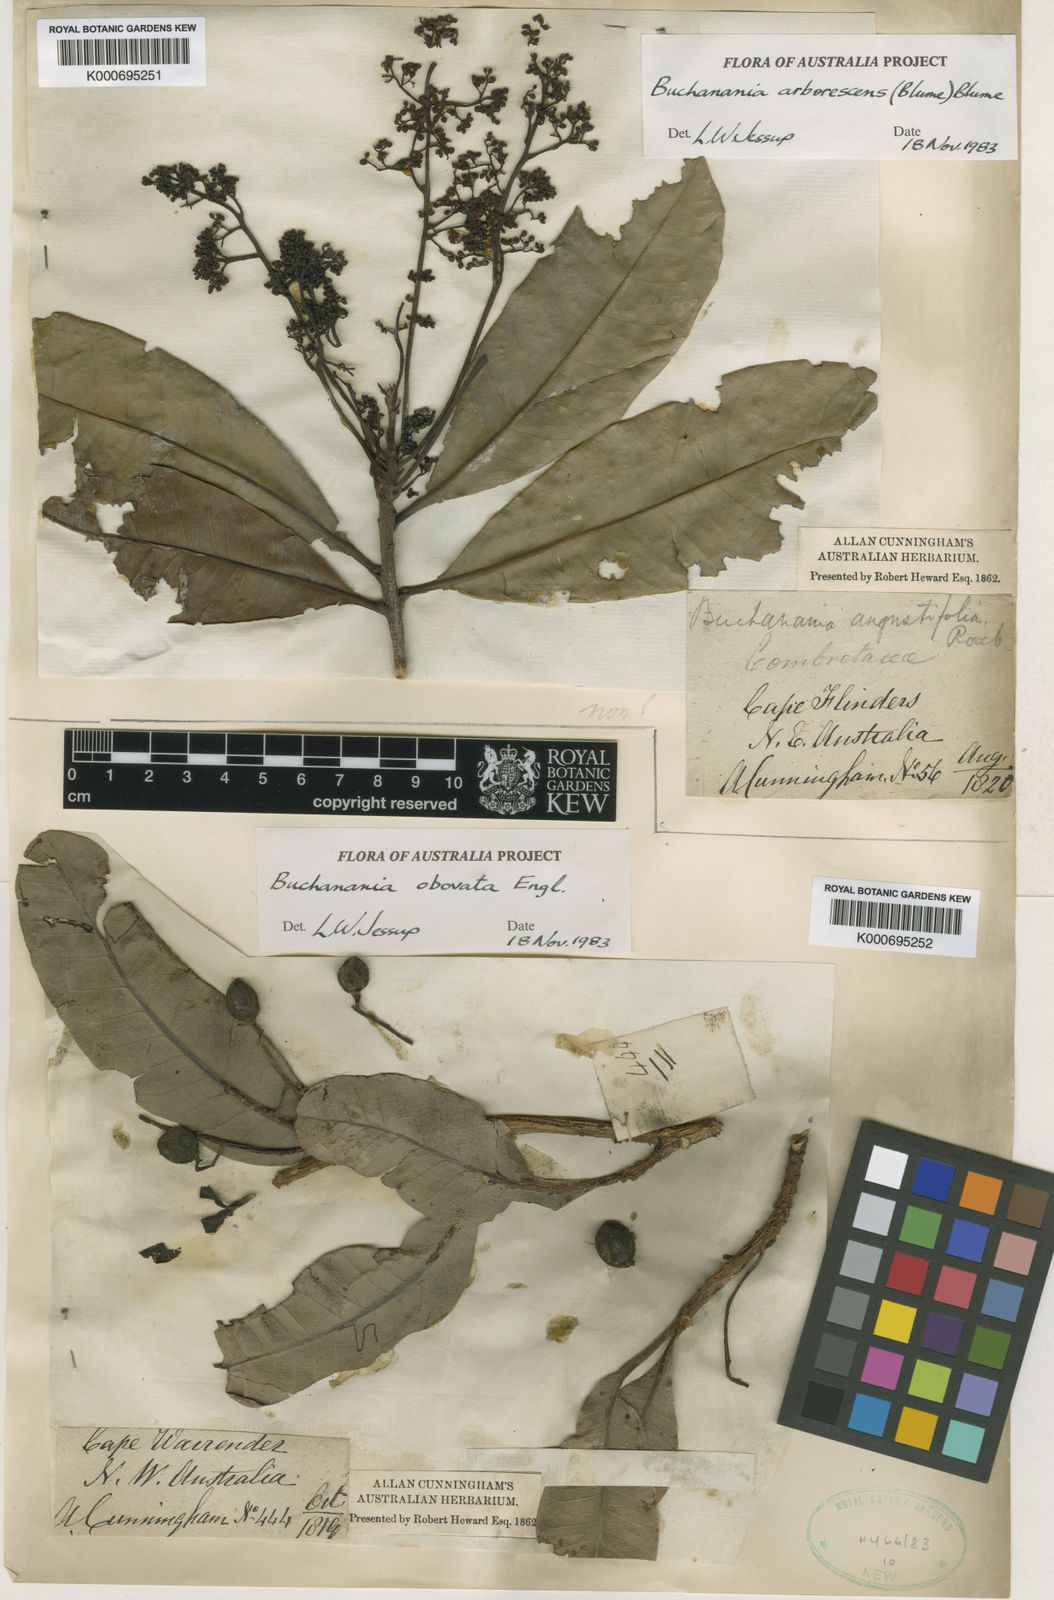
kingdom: Plantae
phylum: Tracheophyta
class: Magnoliopsida
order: Sapindales
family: Anacardiaceae
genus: Buchanania
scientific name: Buchanania arborescens
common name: Sparrow’s mango
